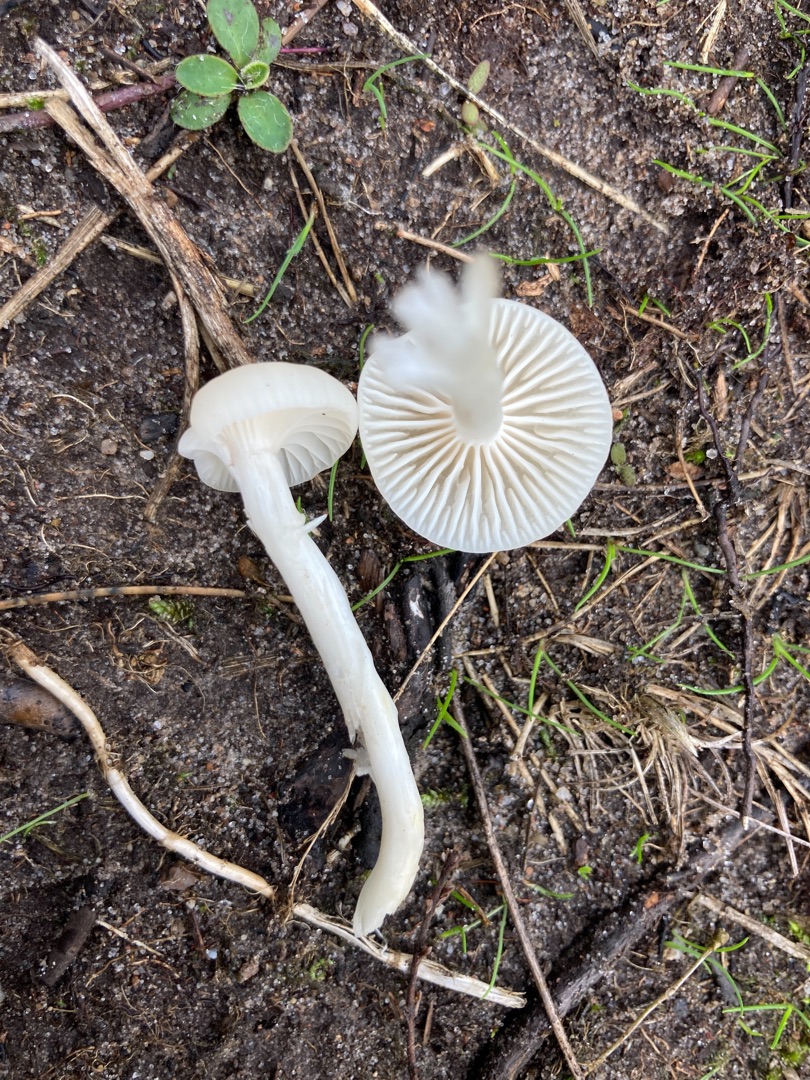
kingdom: Fungi
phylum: Basidiomycota
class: Agaricomycetes
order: Agaricales
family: Hygrophoraceae
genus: Cuphophyllus
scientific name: Cuphophyllus virgineus
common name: Snehvid vokshat
